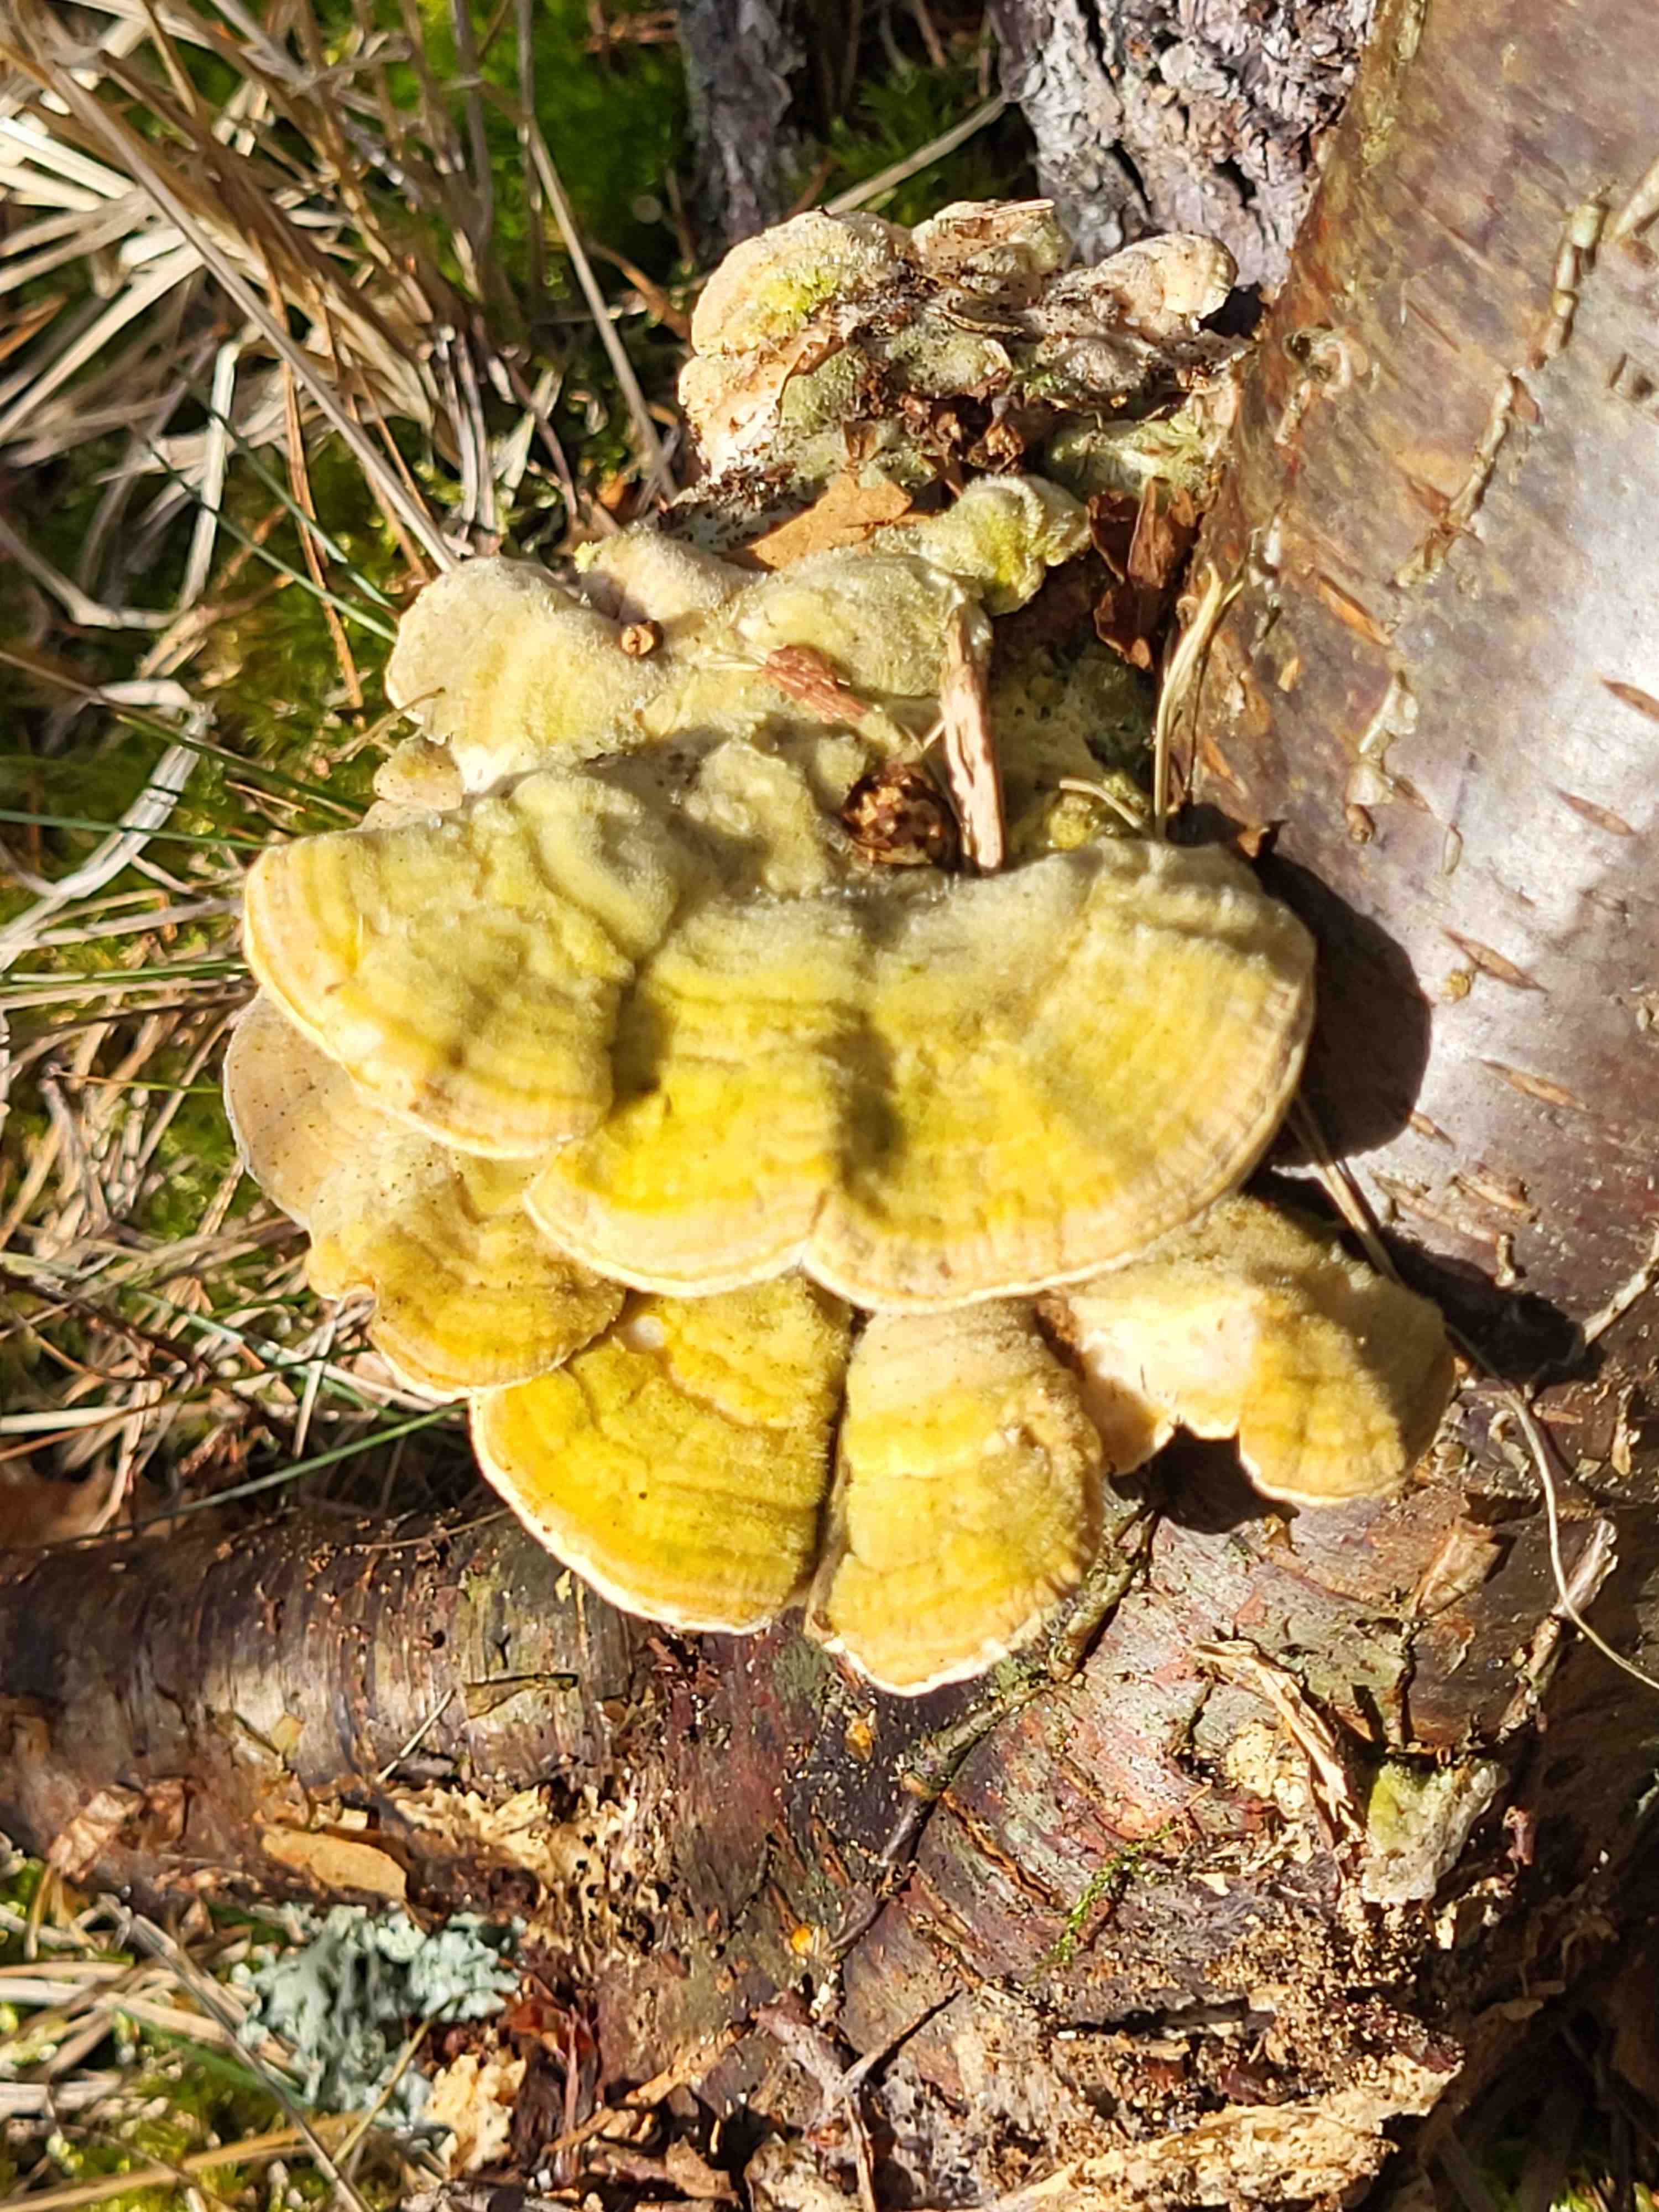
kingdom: Fungi
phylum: Basidiomycota
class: Agaricomycetes
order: Polyporales
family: Polyporaceae
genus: Lenzites
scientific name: Lenzites betulinus
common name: birke-læderporesvamp
